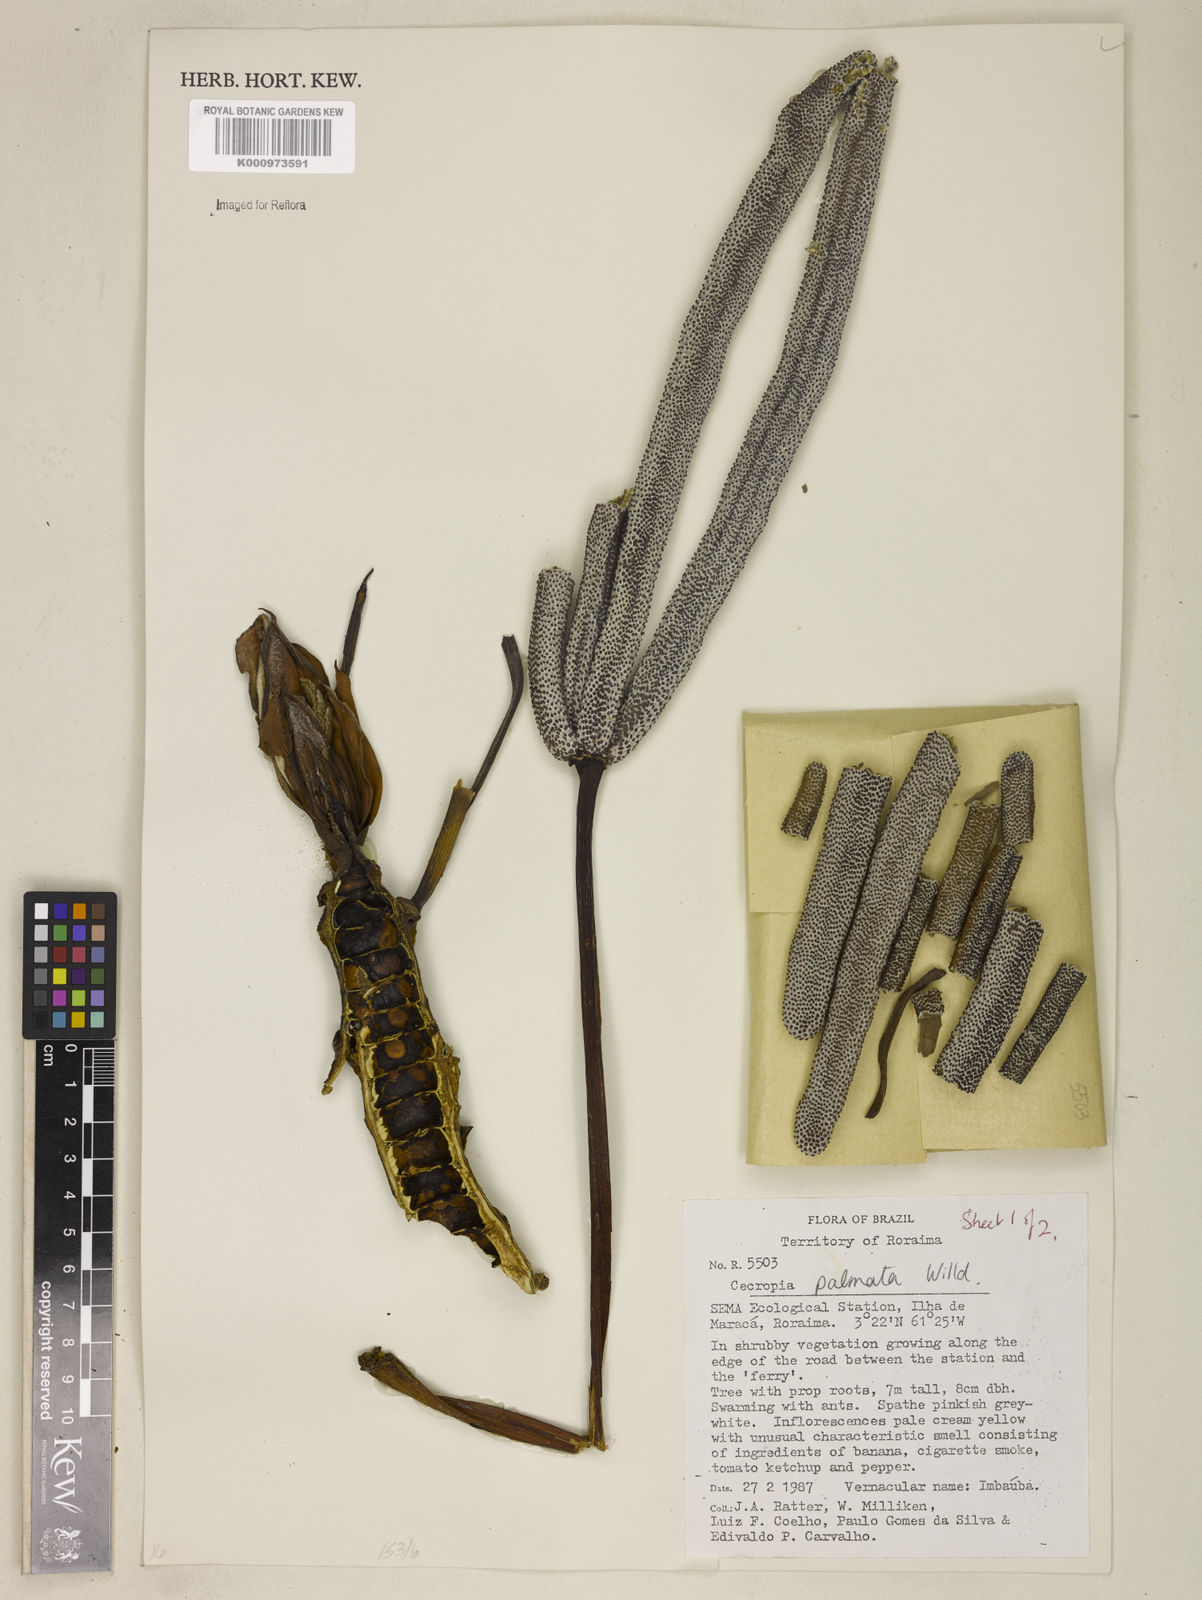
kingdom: Plantae
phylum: Tracheophyta
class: Magnoliopsida
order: Rosales
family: Urticaceae
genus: Cecropia
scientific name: Cecropia palmata
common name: Trumpet tree
